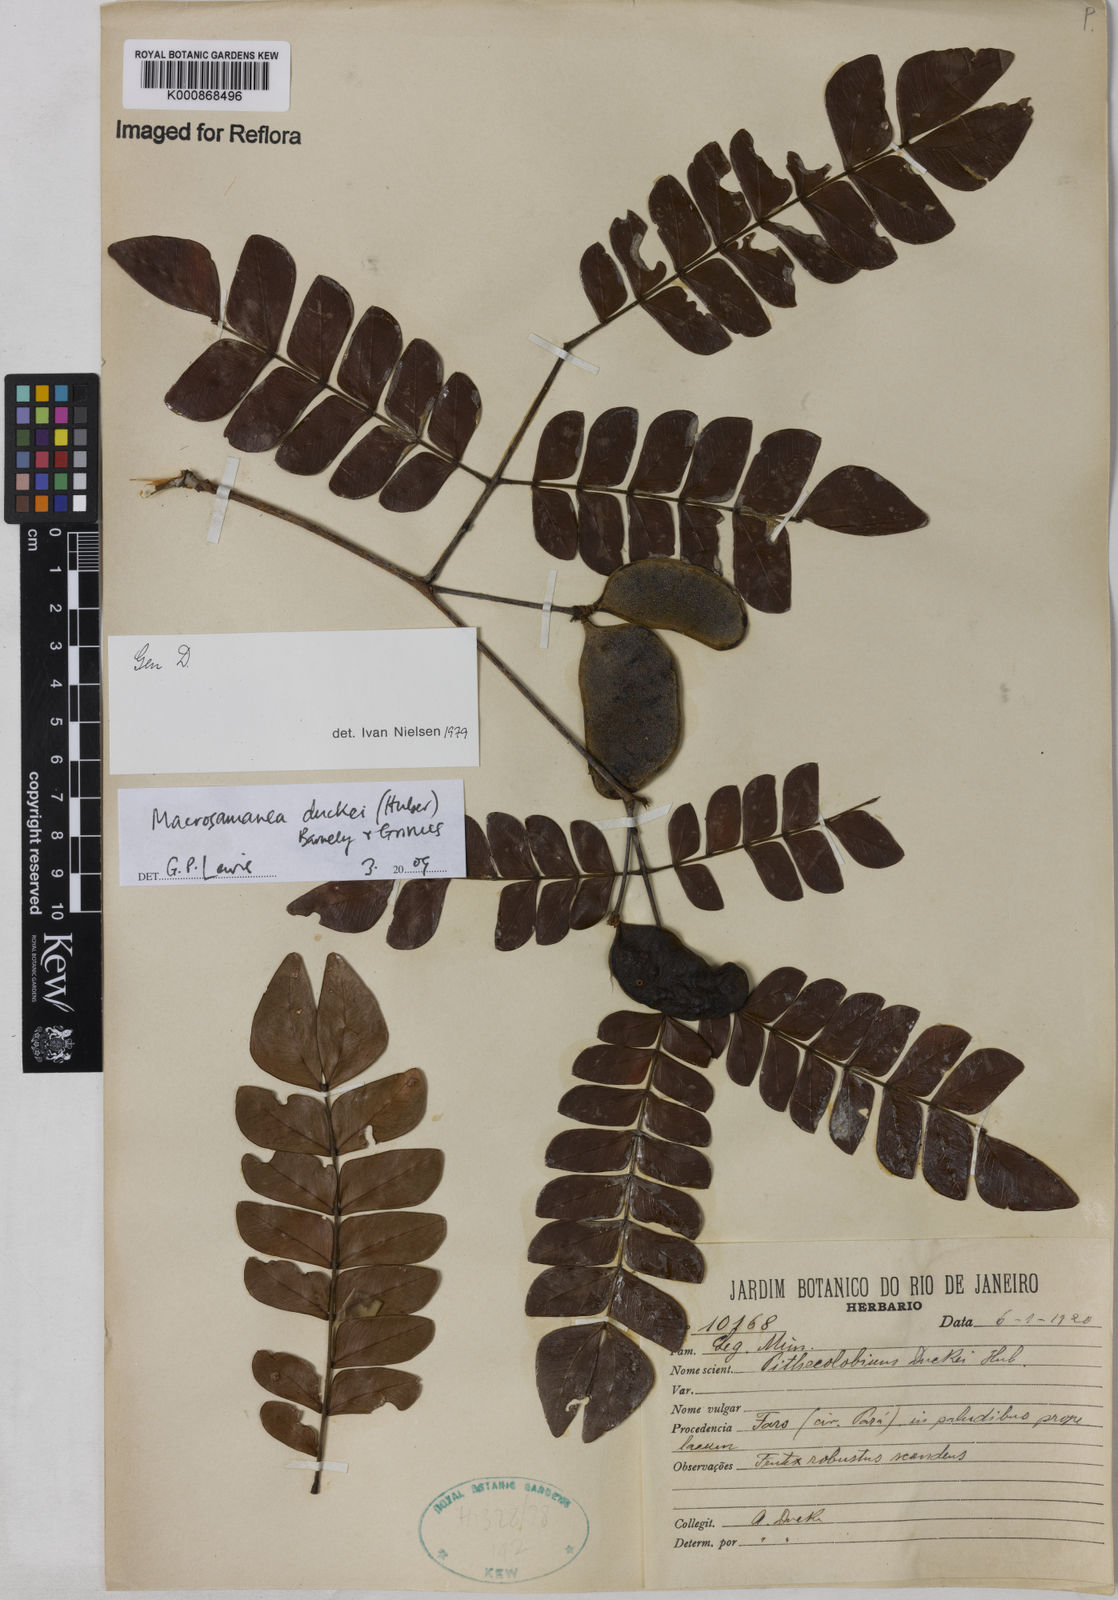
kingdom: Plantae
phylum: Tracheophyta
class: Magnoliopsida
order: Fabales
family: Fabaceae
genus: Macrosamanea
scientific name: Macrosamanea duckei
